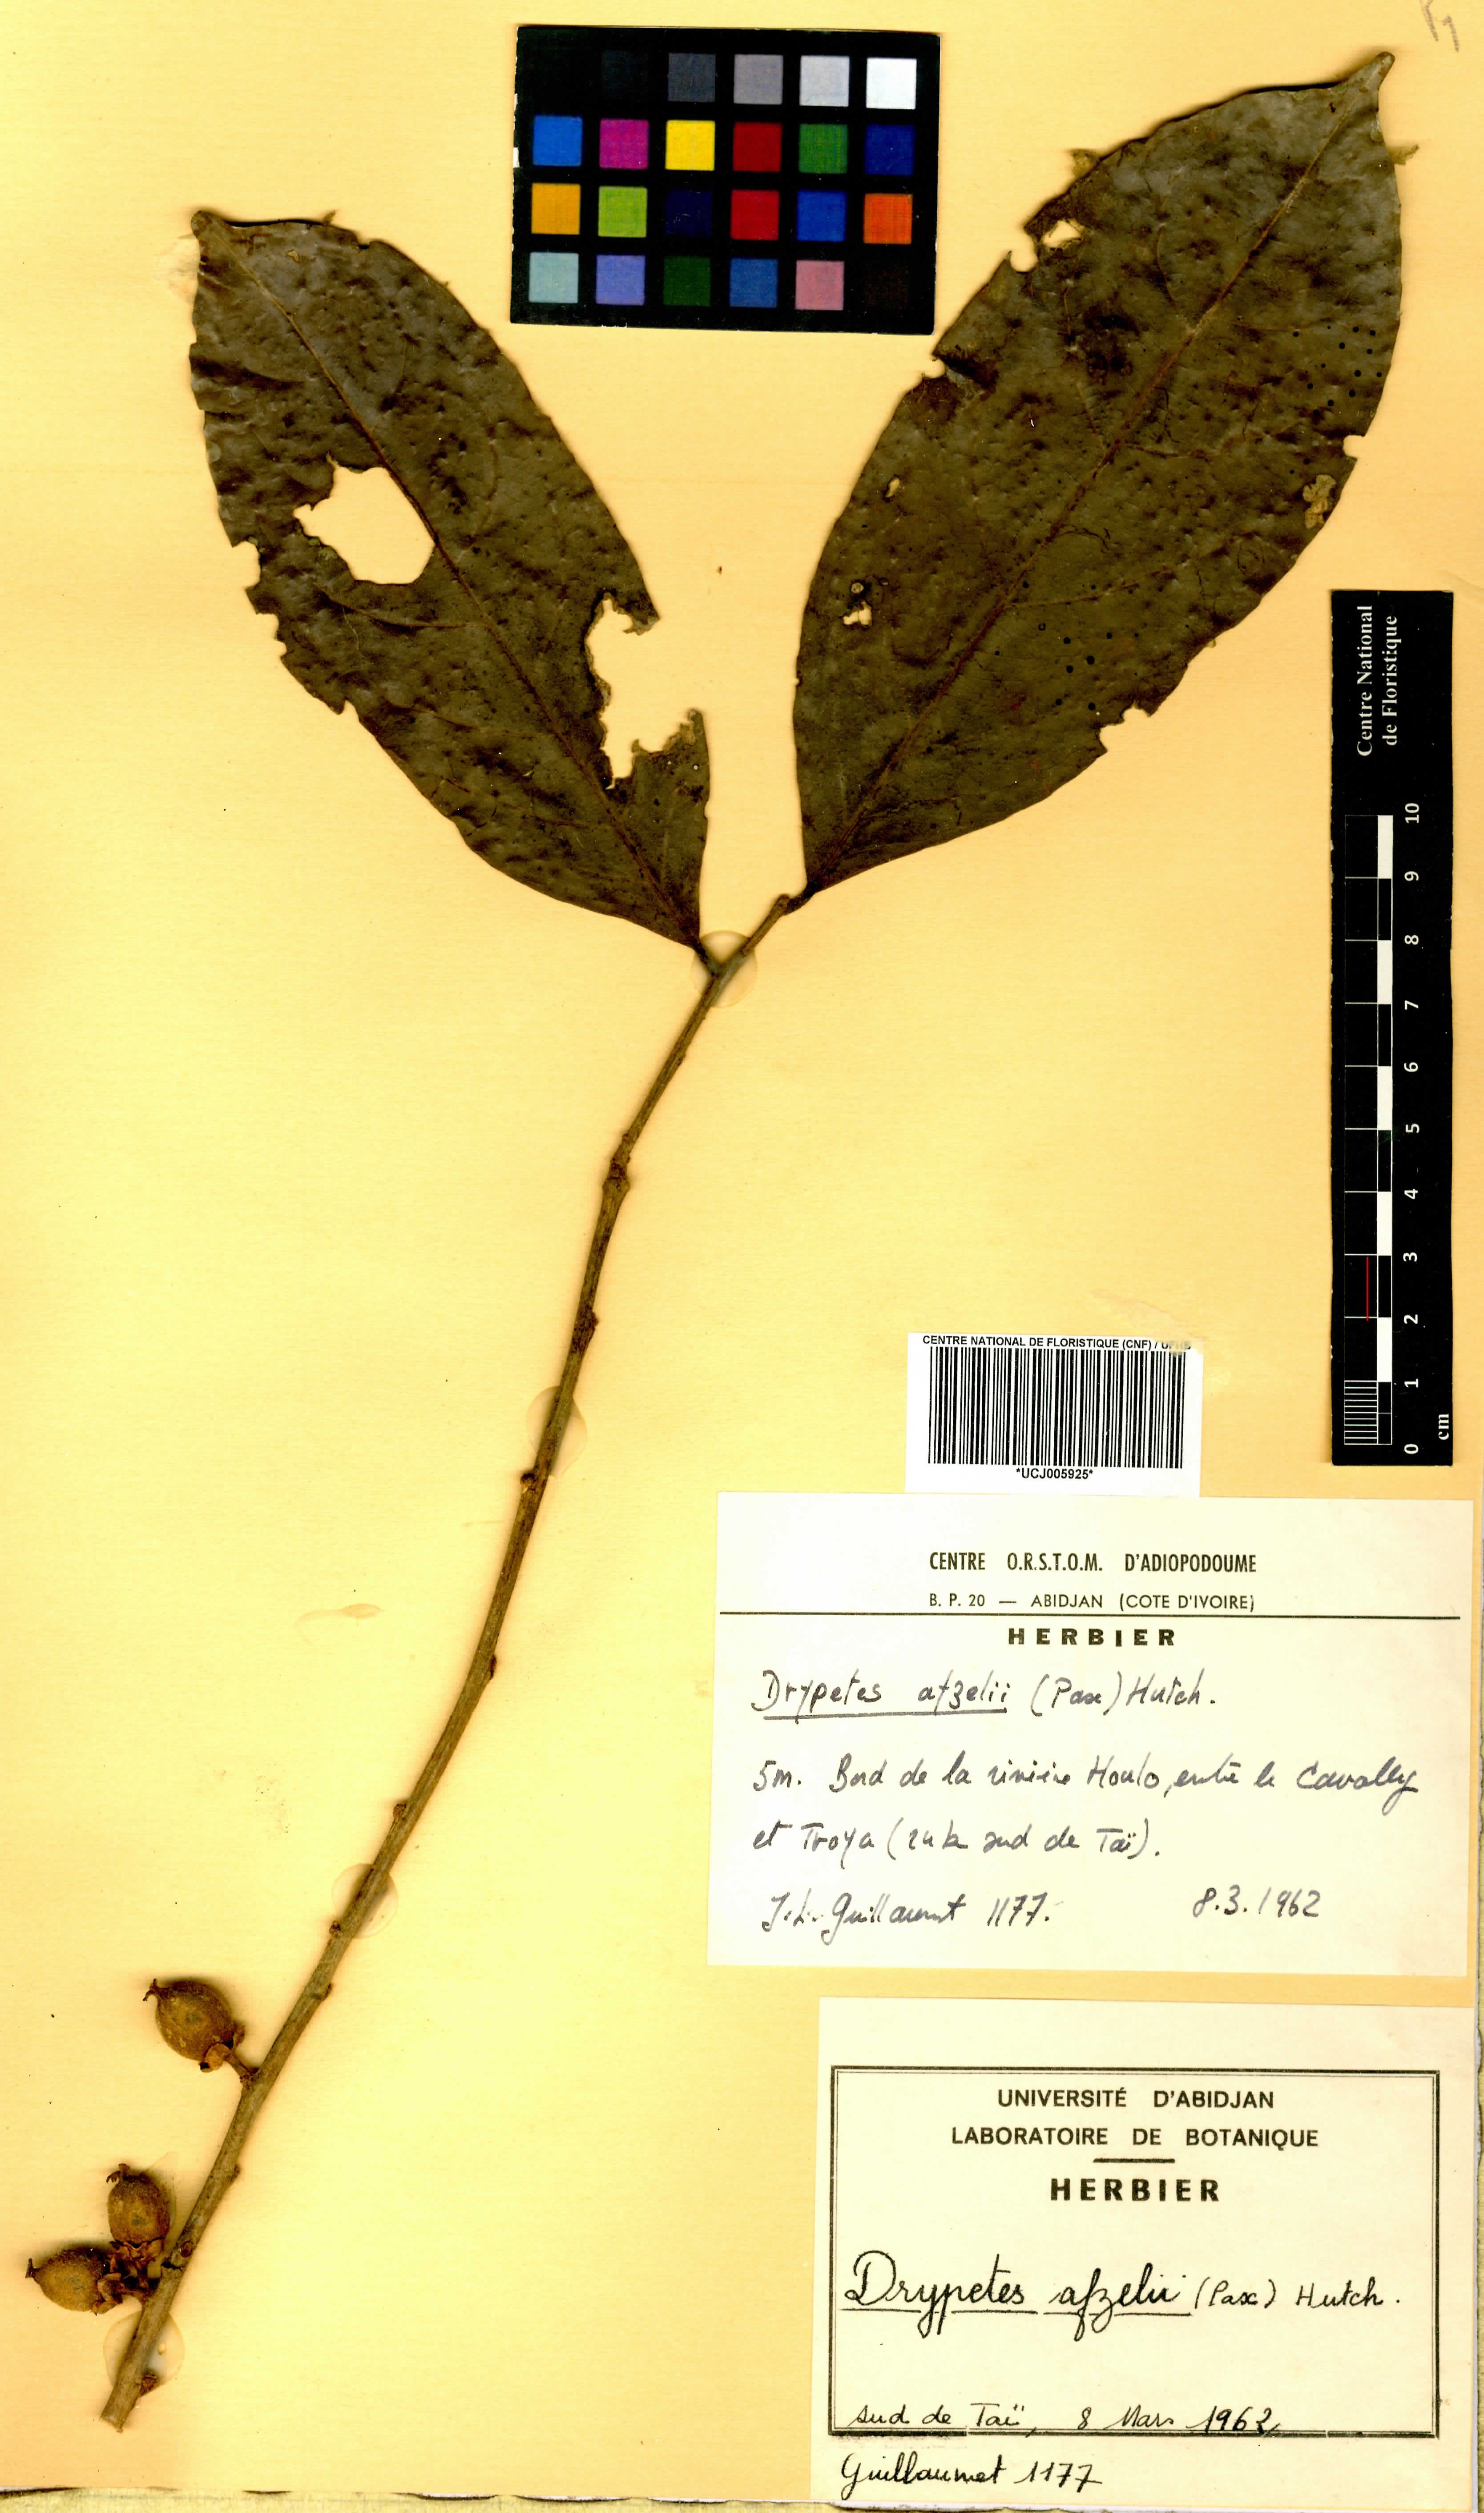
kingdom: Plantae
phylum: Tracheophyta
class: Magnoliopsida
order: Malpighiales
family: Putranjivaceae
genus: Drypetes
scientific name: Drypetes afzelii
